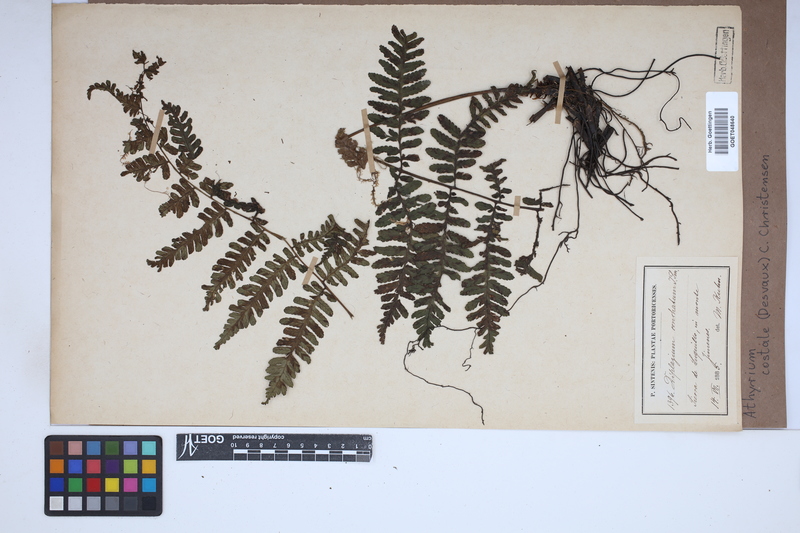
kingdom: Plantae
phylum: Tracheophyta
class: Polypodiopsida
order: Polypodiales
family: Athyriaceae
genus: Diplazium
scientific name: Diplazium pectinatum
